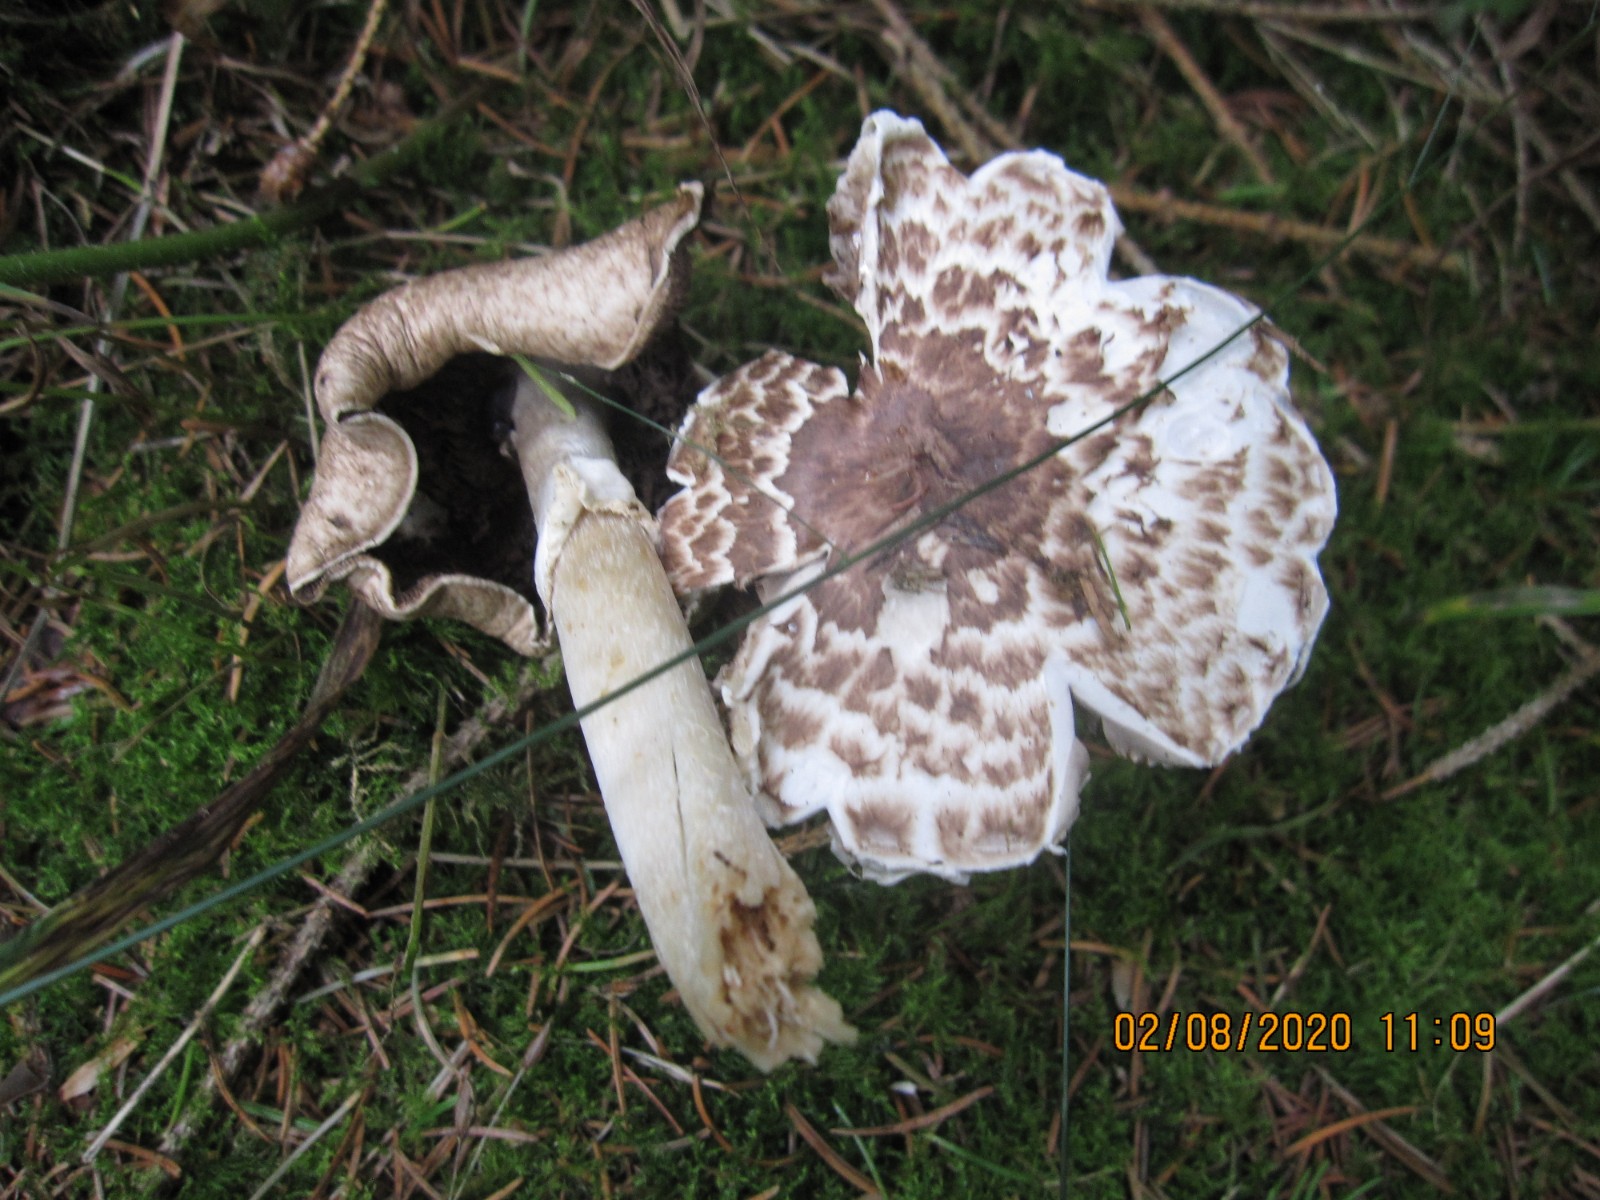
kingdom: Fungi
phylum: Basidiomycota
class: Agaricomycetes
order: Agaricales
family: Agaricaceae
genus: Agaricus
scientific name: Agaricus impudicus
